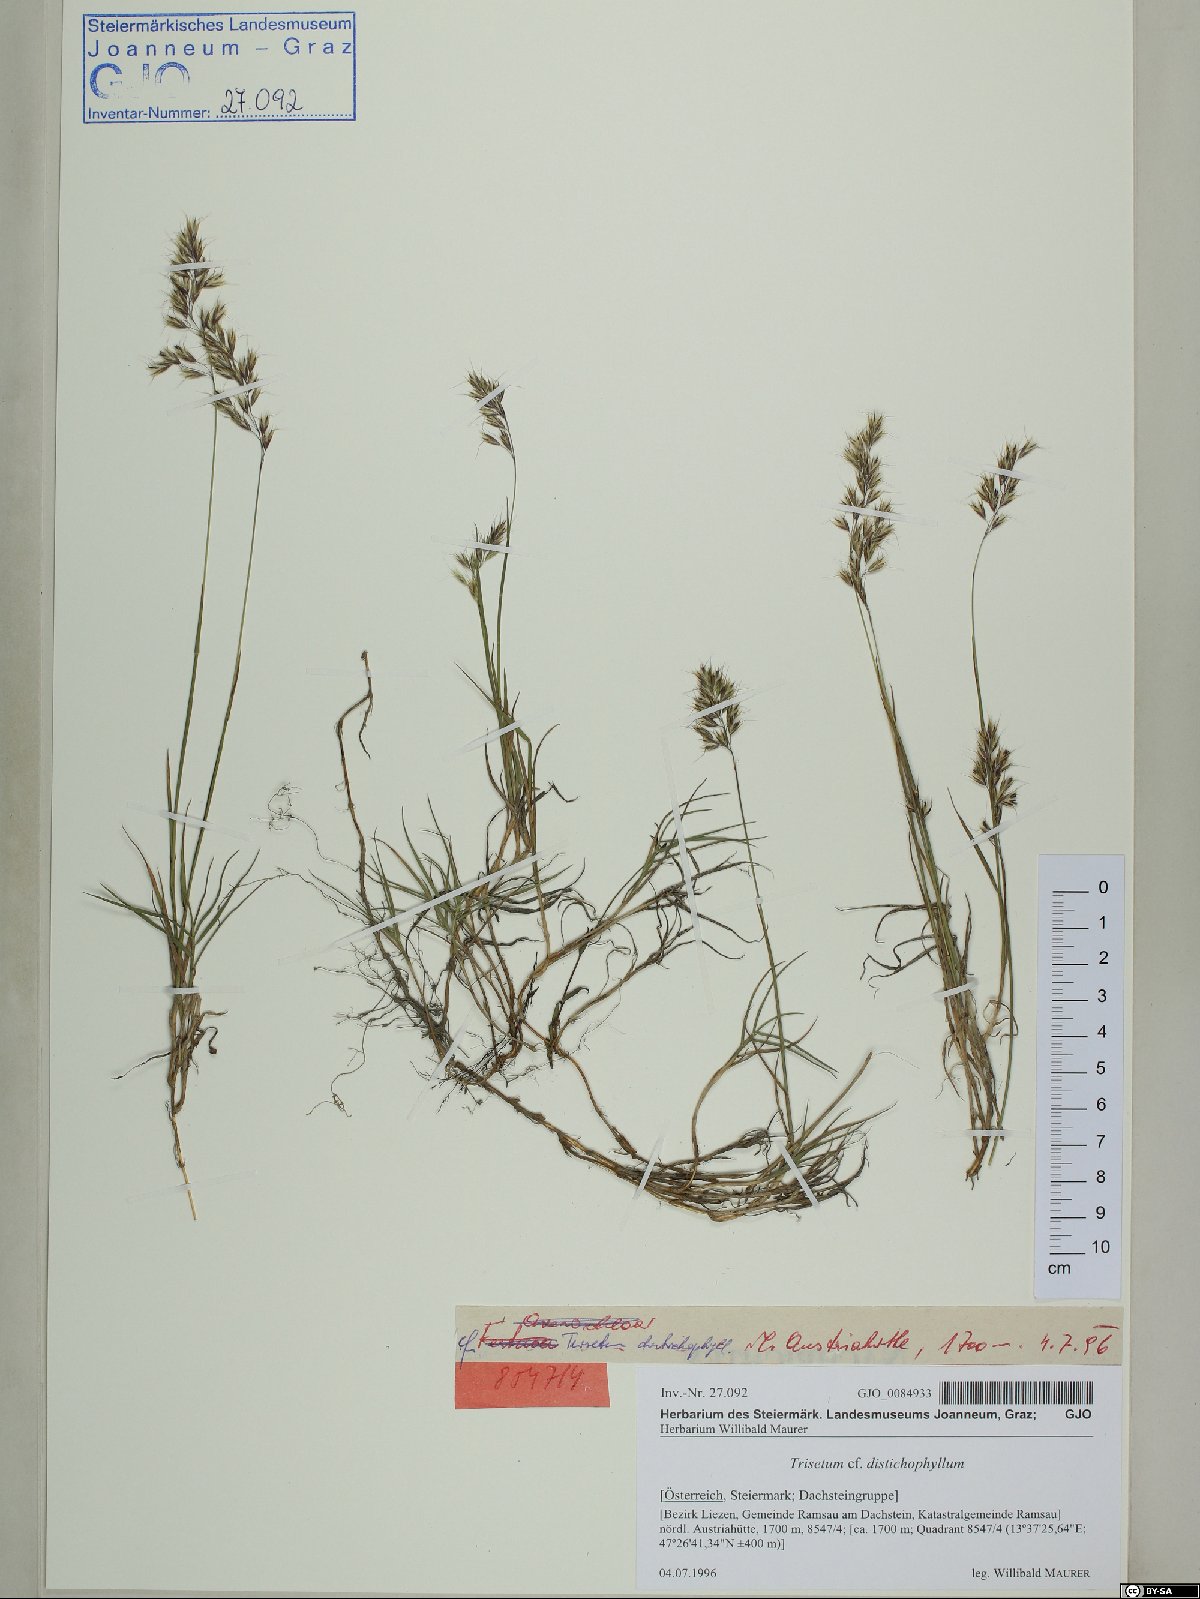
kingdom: Plantae
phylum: Tracheophyta
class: Liliopsida
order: Poales
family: Poaceae
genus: Acrospelion
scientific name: Acrospelion distichophyllum
